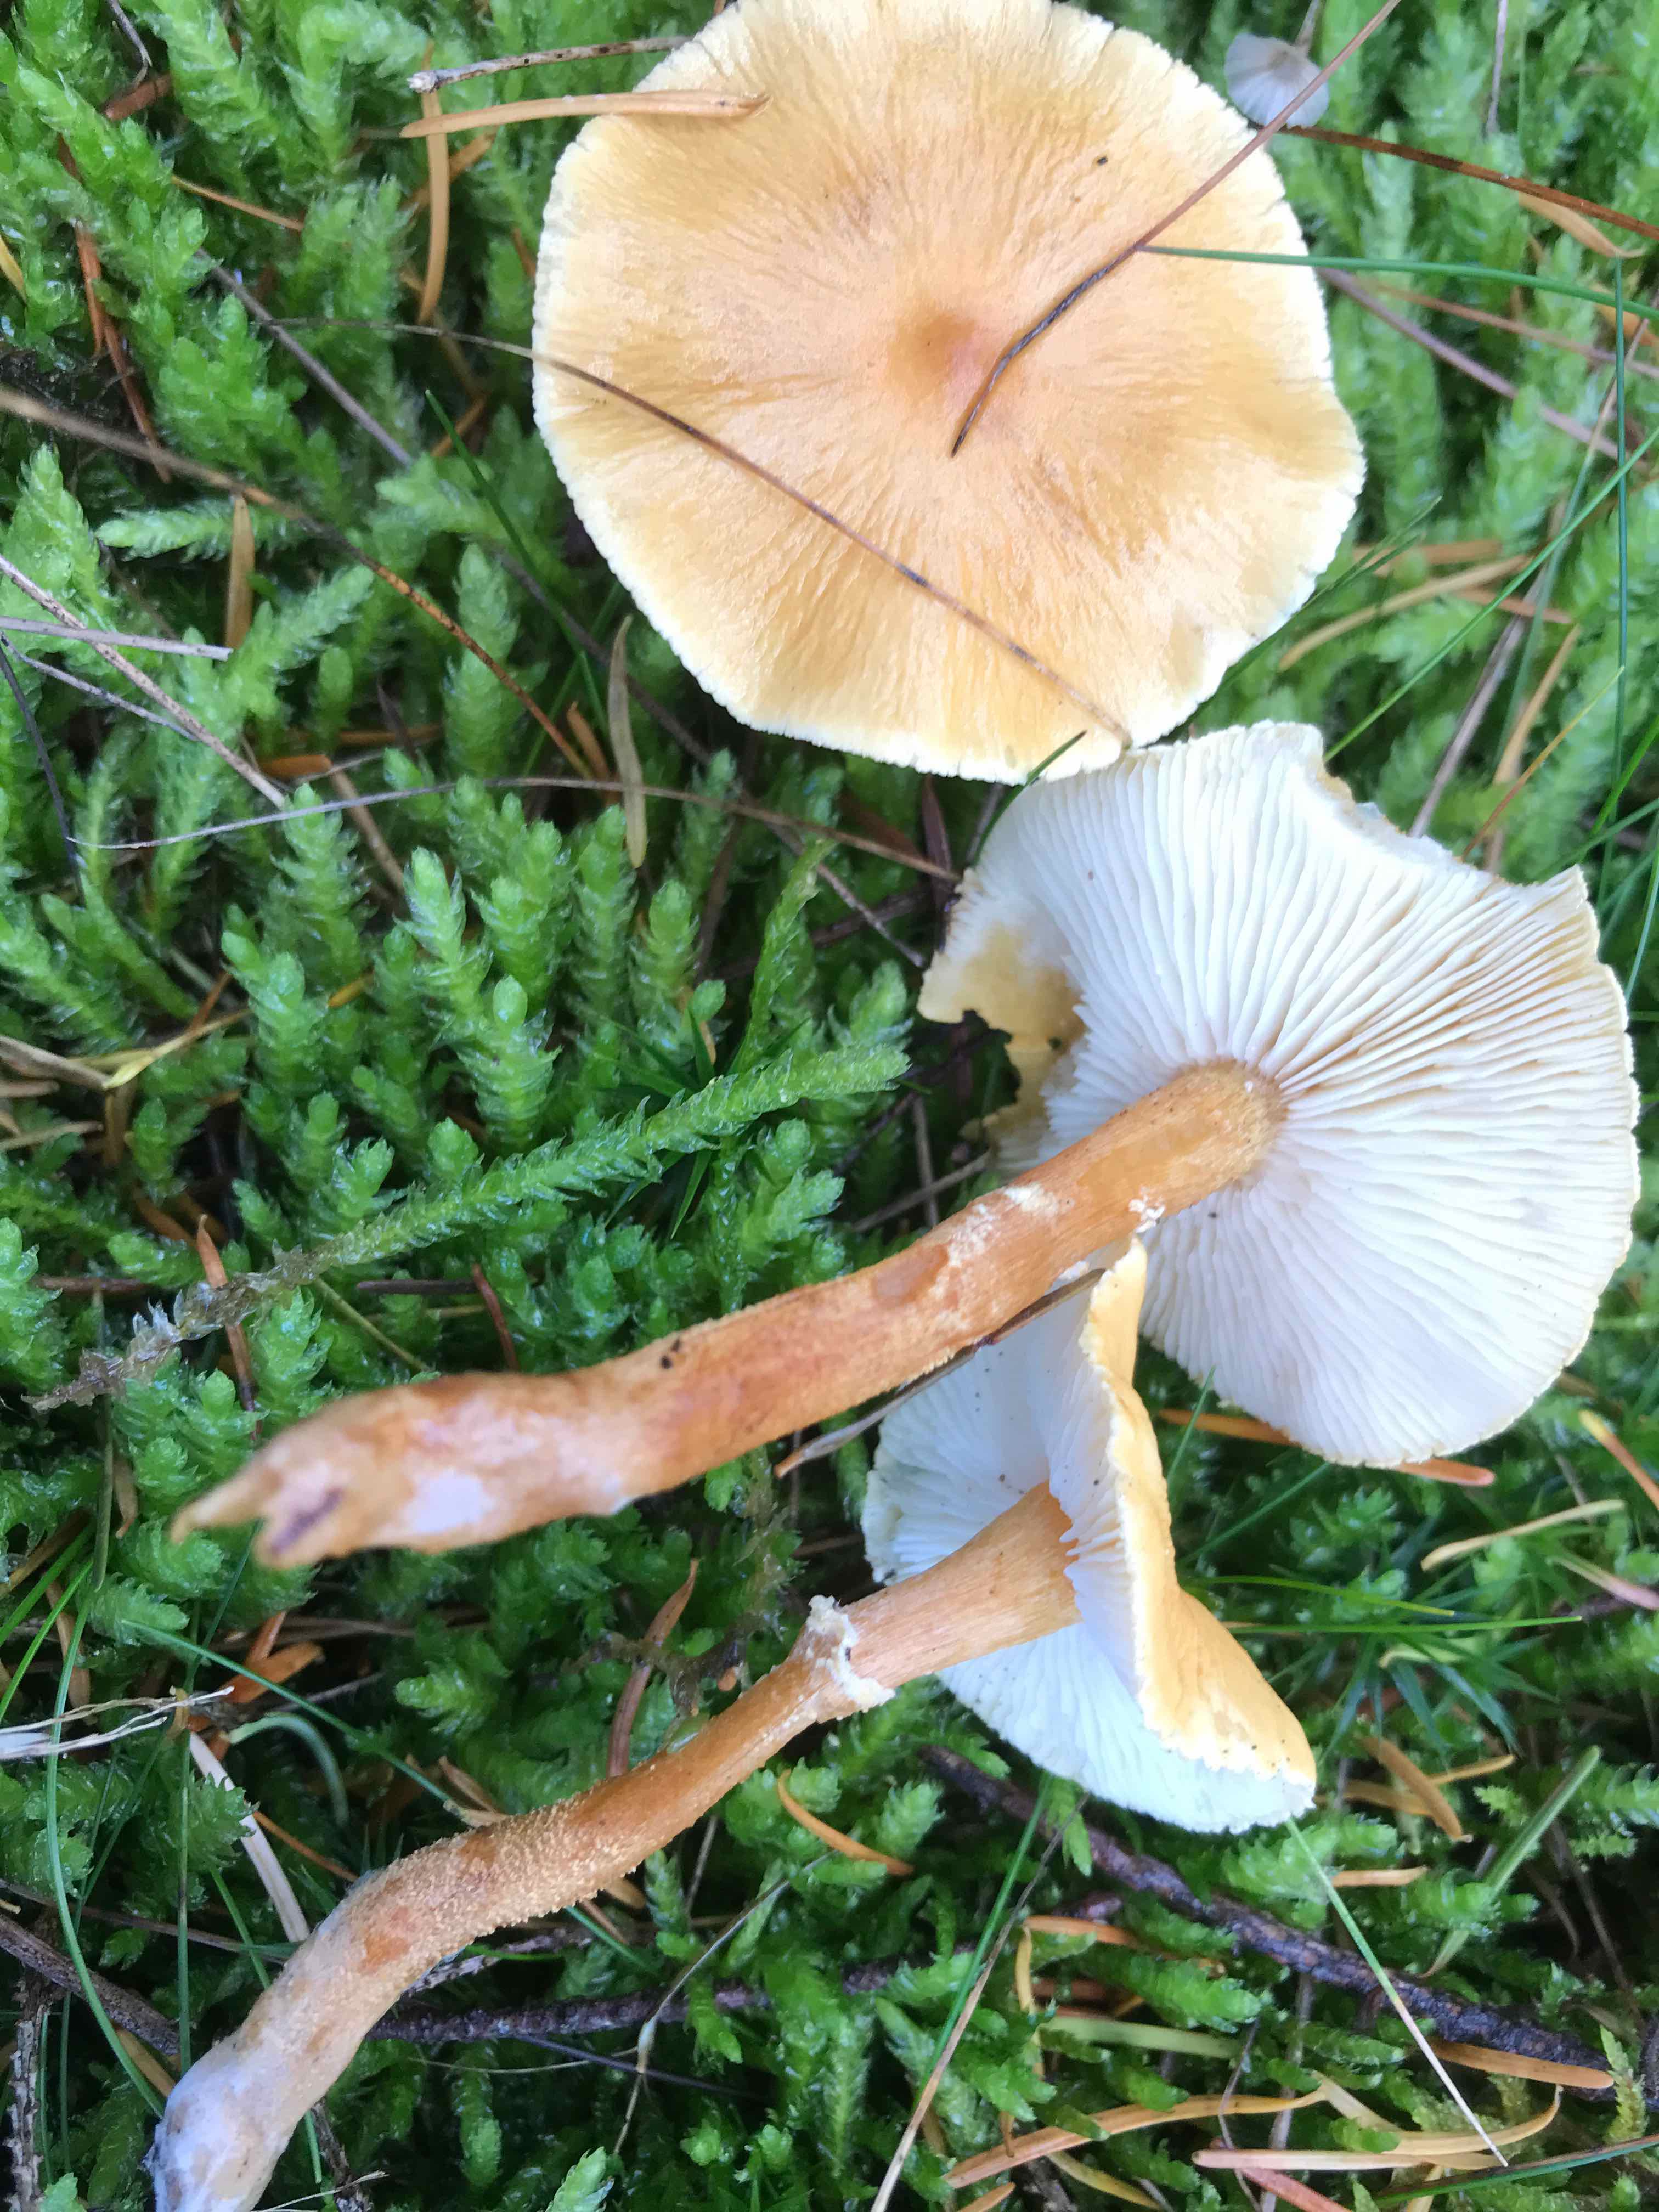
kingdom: Fungi
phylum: Basidiomycota
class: Agaricomycetes
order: Agaricales
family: Tricholomataceae
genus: Cystoderma
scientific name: Cystoderma amianthinum
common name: okkergul grynhat
